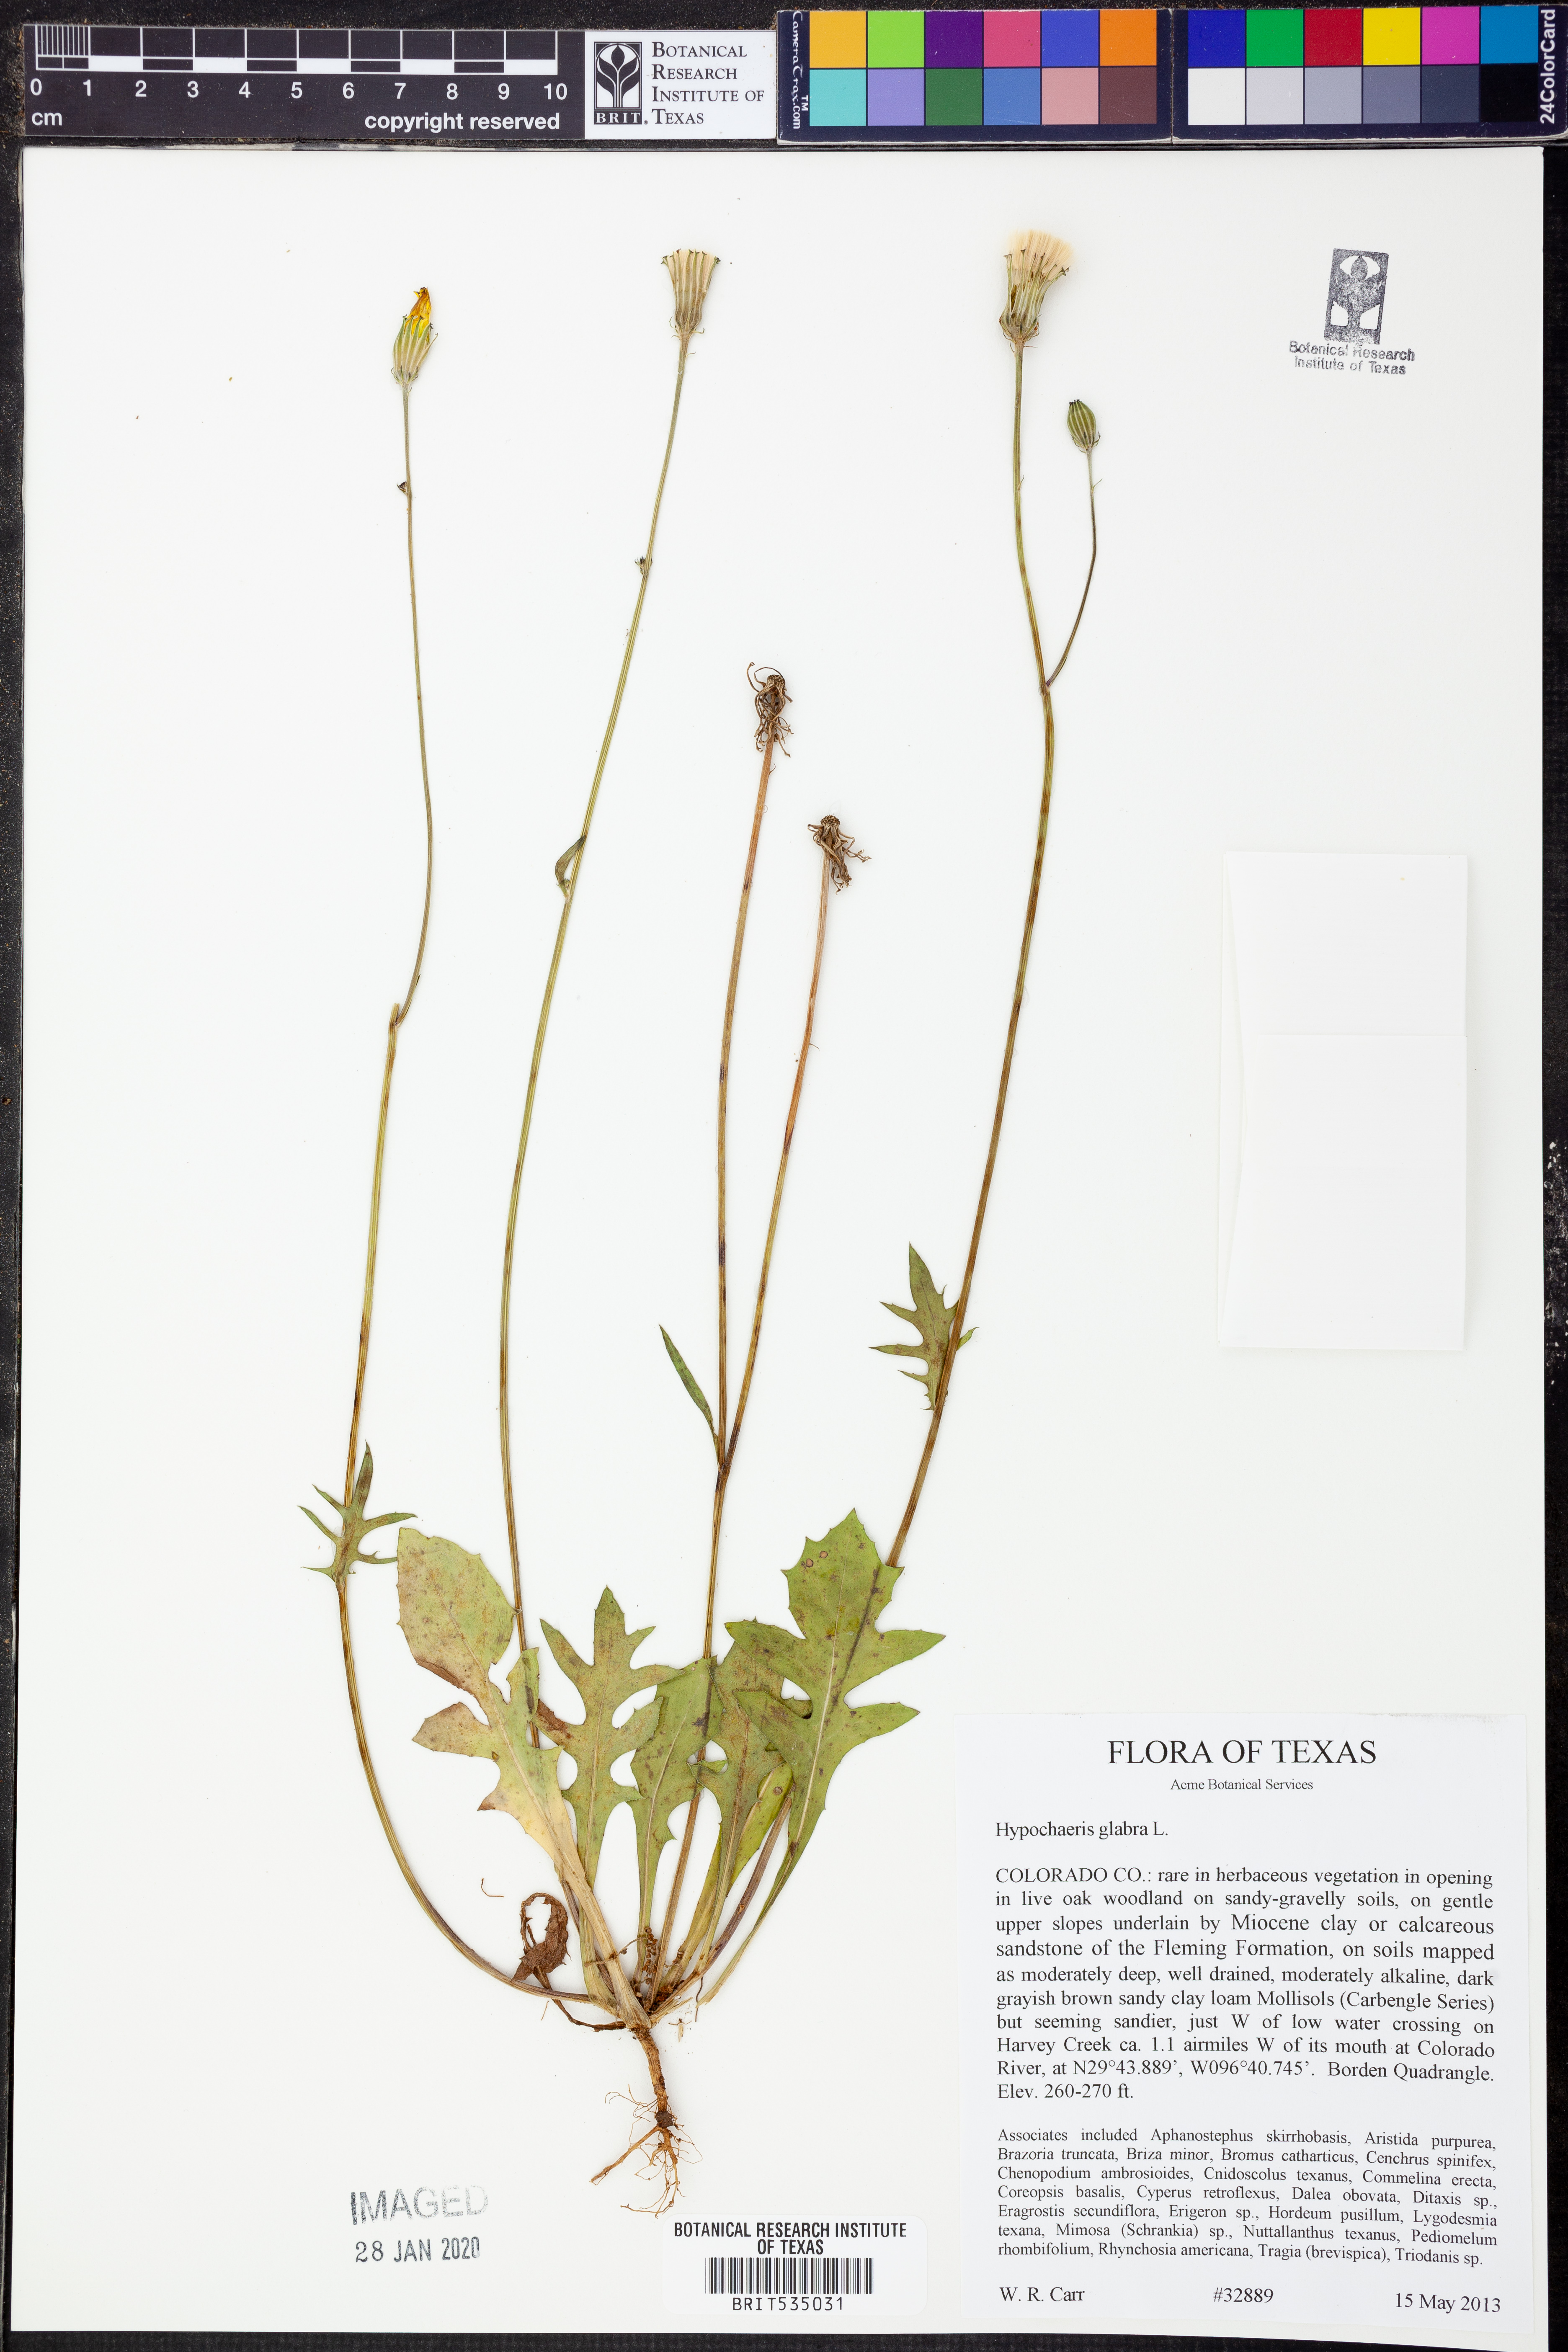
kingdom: Plantae
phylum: Tracheophyta
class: Magnoliopsida
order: Asterales
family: Asteraceae
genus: Hypochaeris
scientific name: Hypochaeris glabra
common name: Smooth catsear
